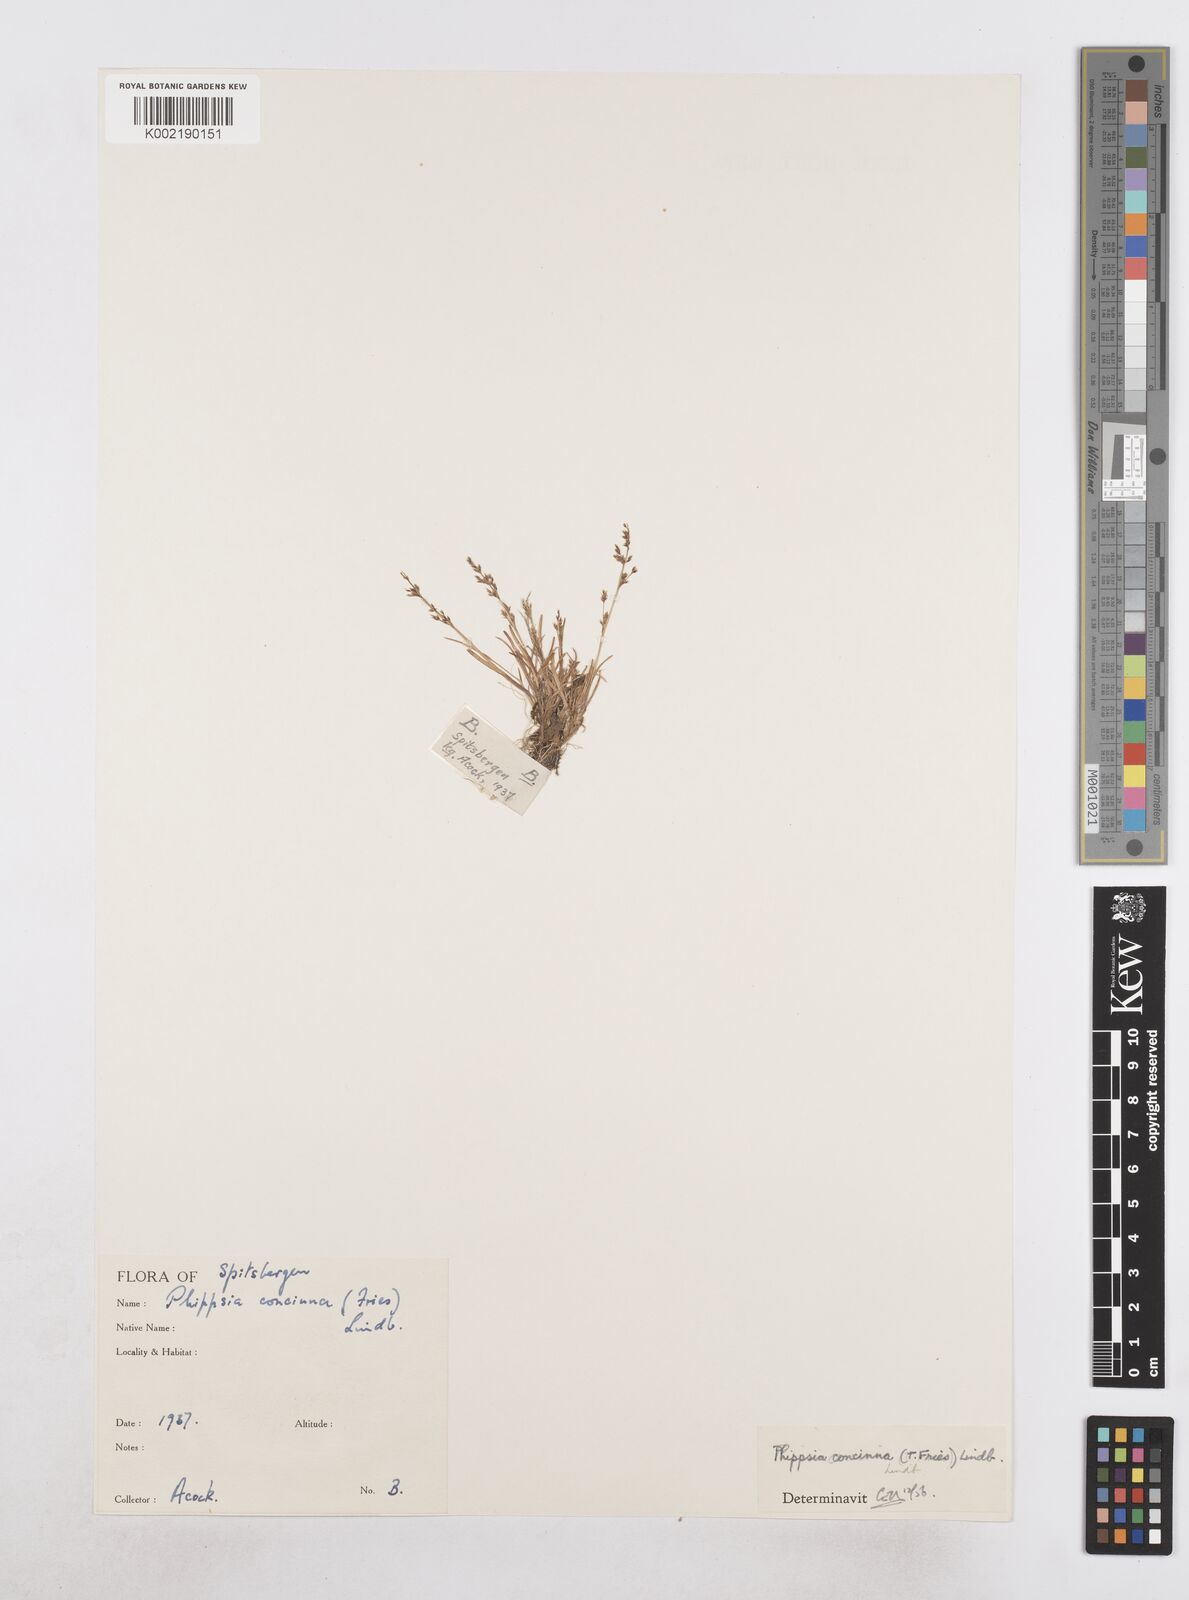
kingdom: Plantae
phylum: Tracheophyta
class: Liliopsida
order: Poales
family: Poaceae
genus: Phippsia
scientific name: Phippsia concinna
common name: Snowgrass
